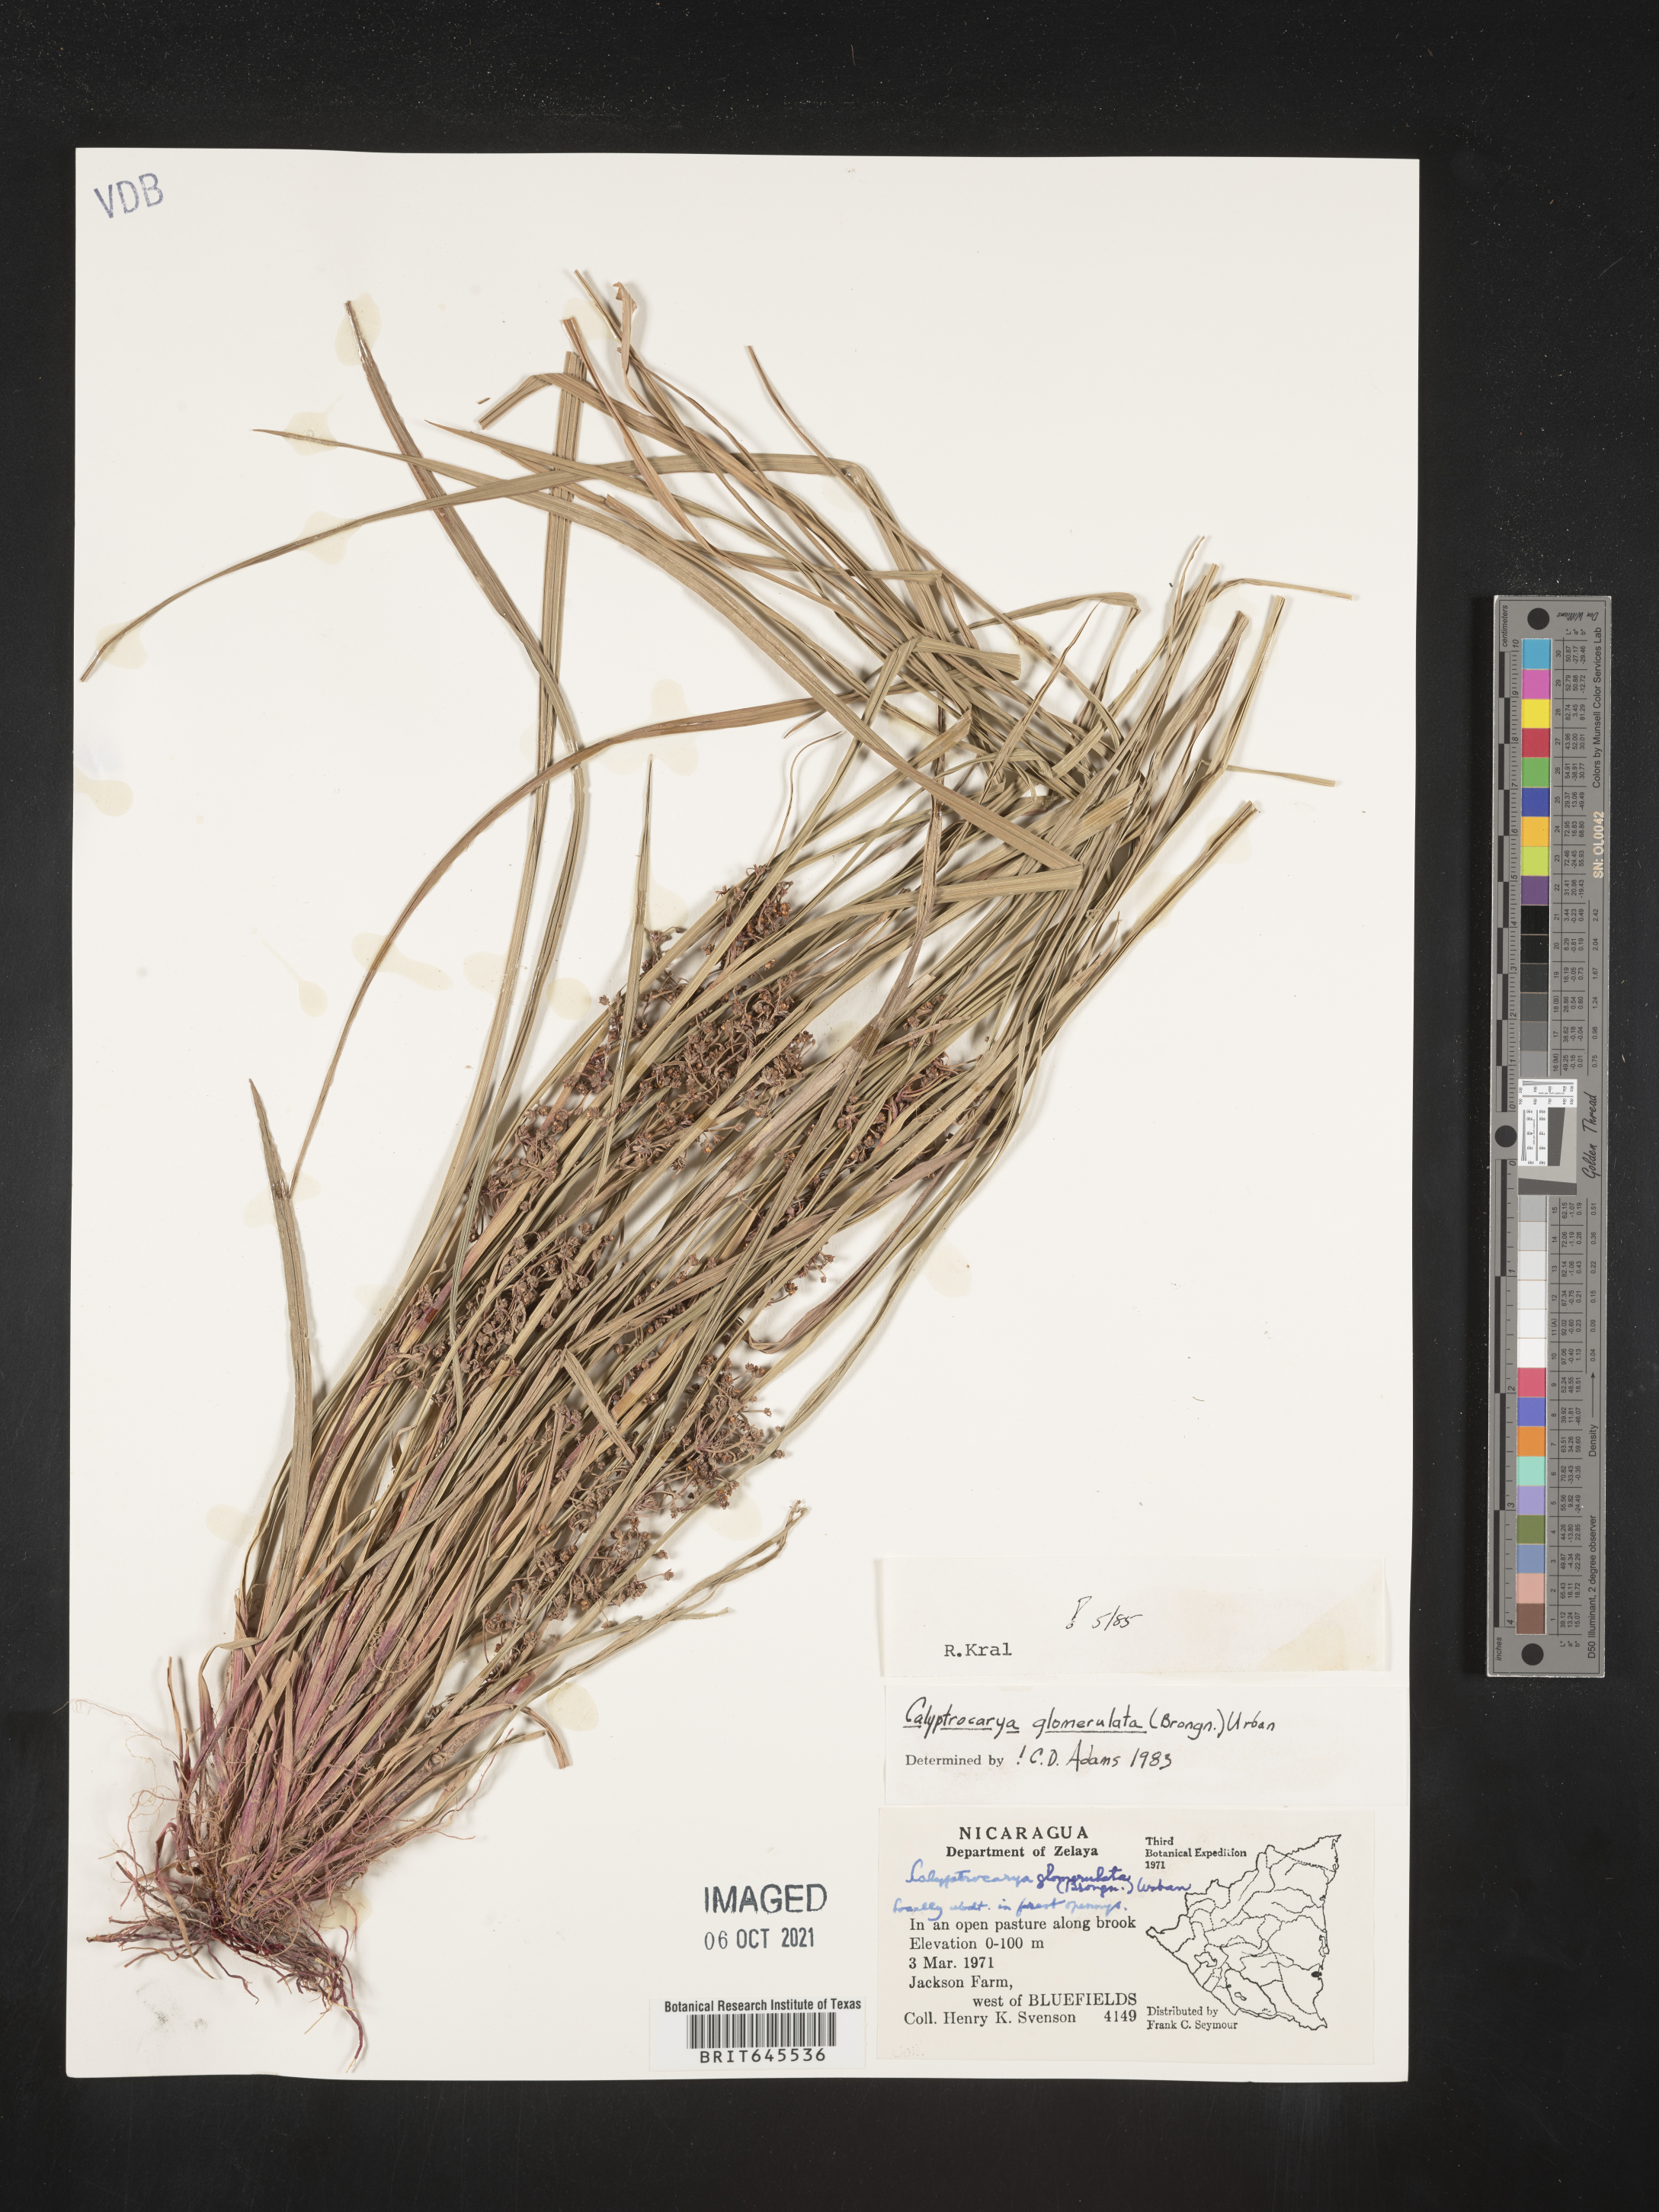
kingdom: Plantae
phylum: Tracheophyta
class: Liliopsida
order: Poales
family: Cyperaceae
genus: Calyptrocarya
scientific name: Calyptrocarya glomerulata
